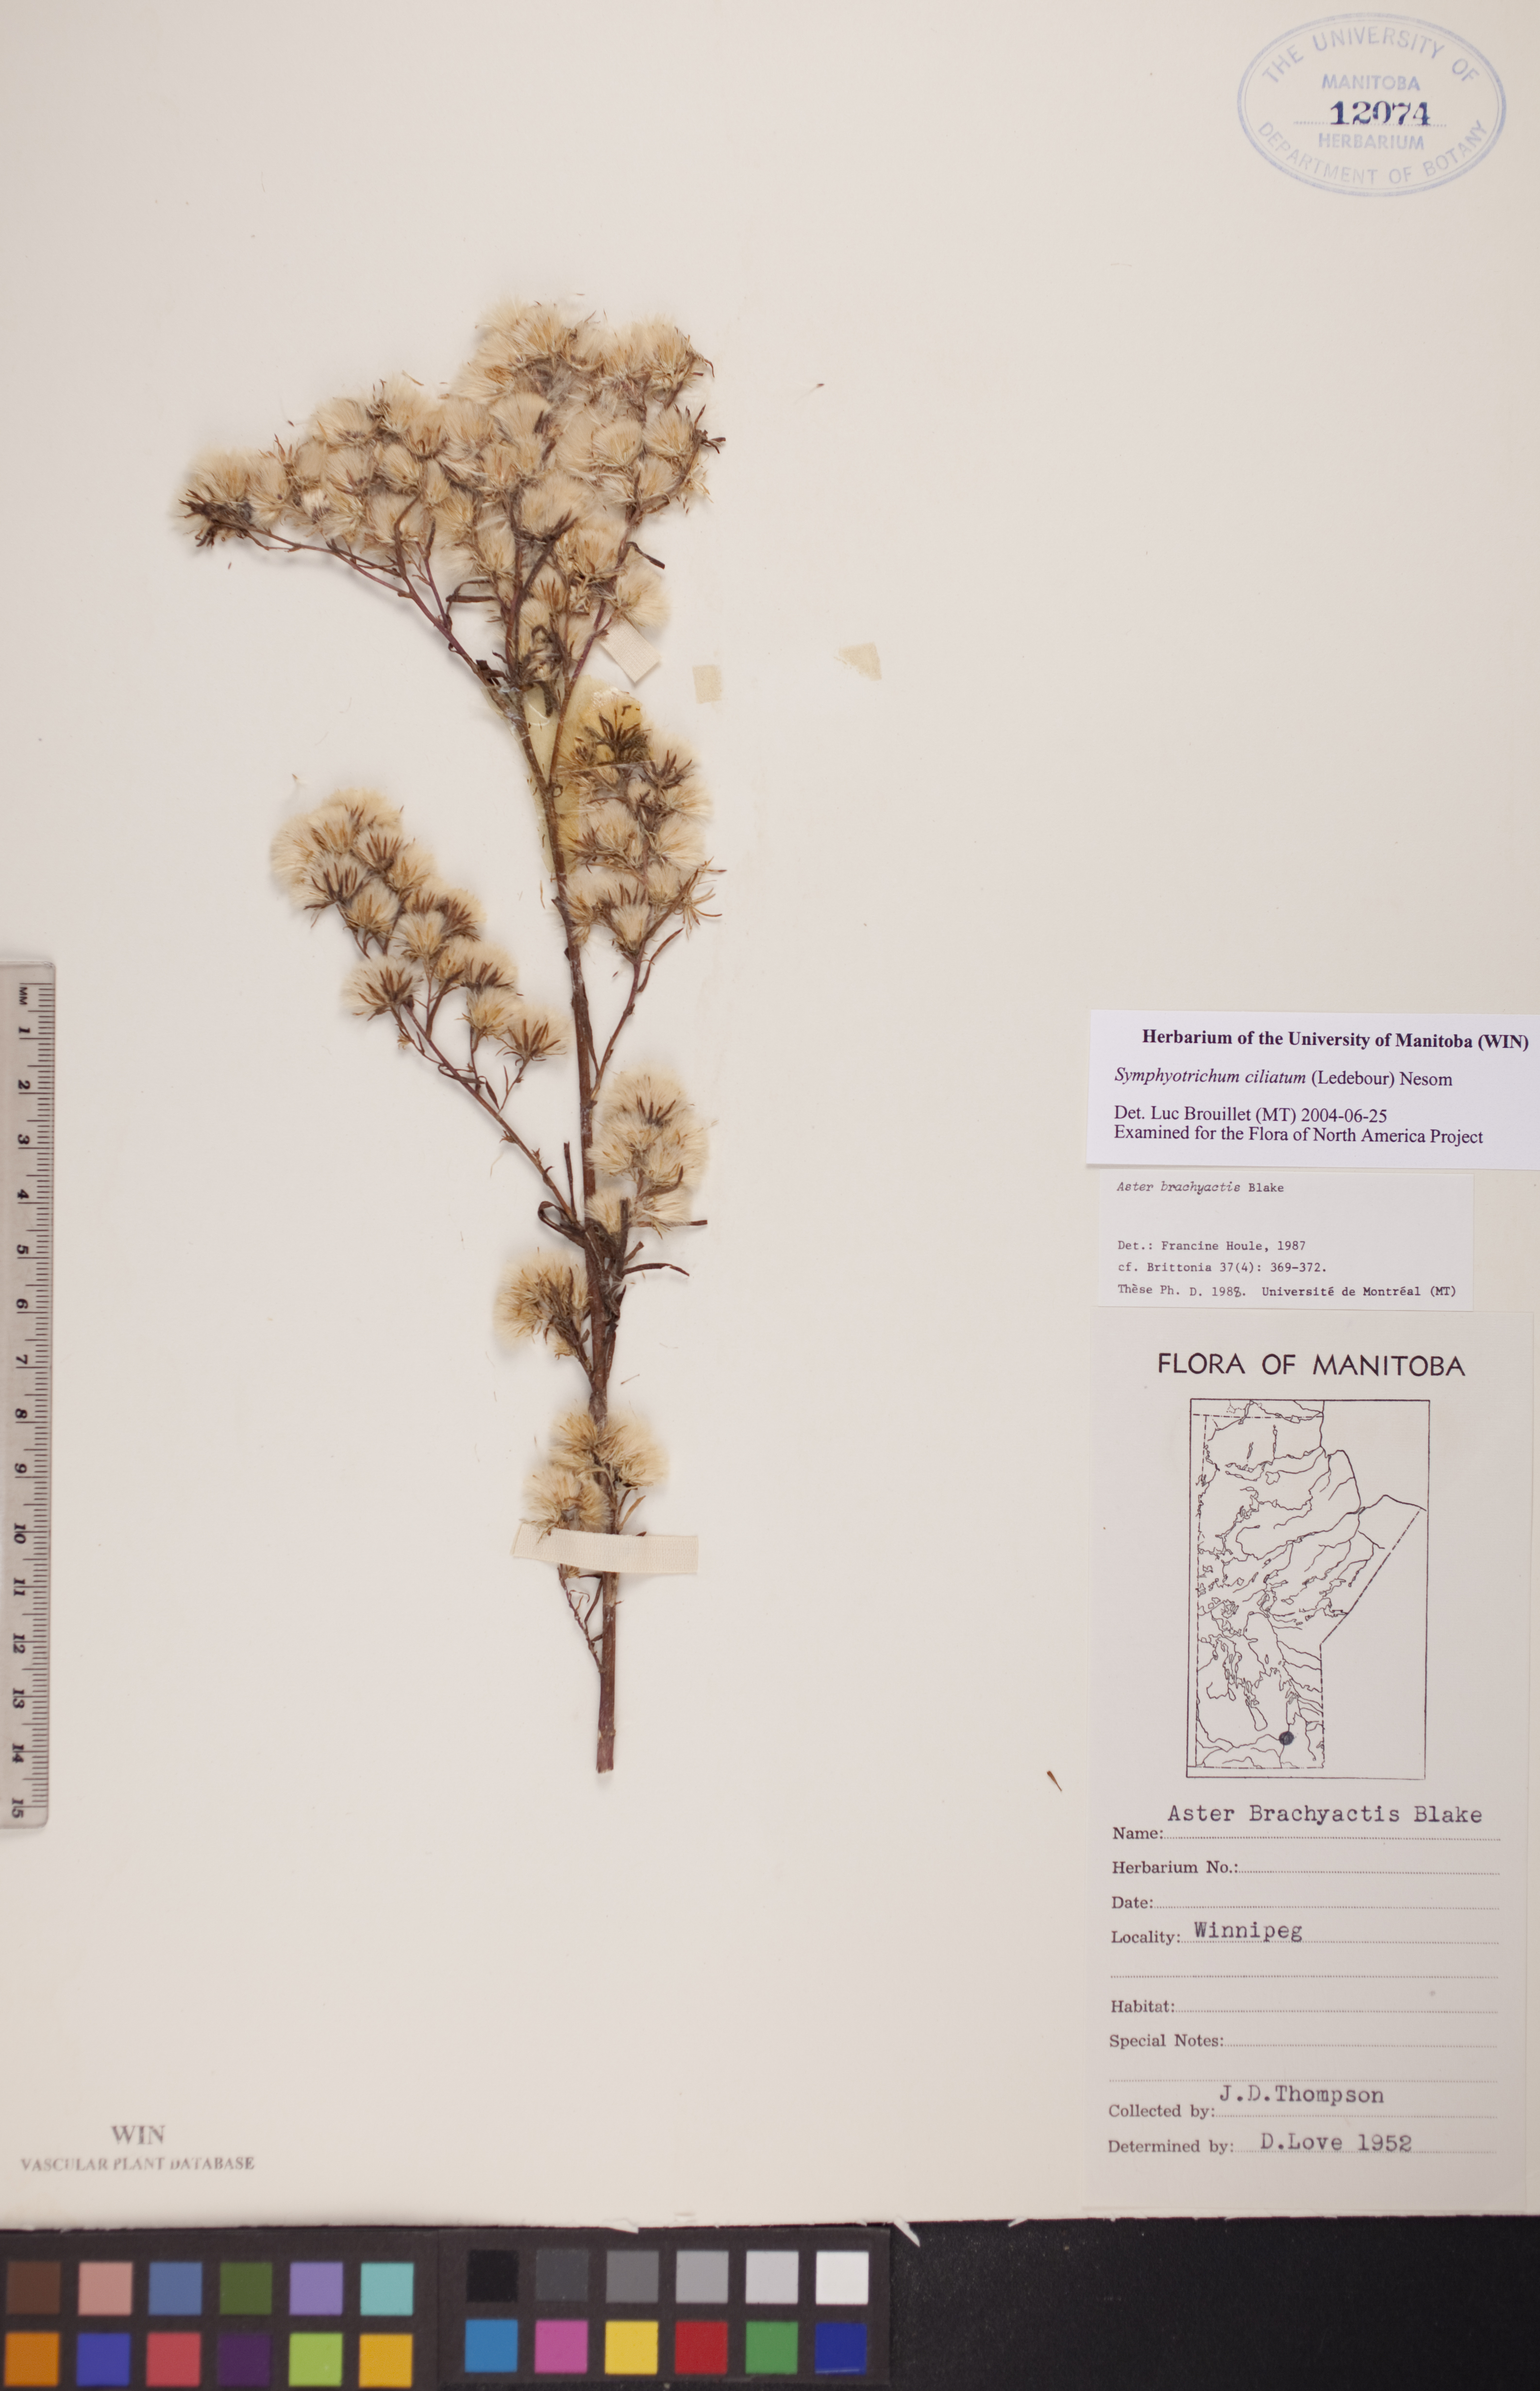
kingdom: Plantae
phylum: Tracheophyta
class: Magnoliopsida
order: Asterales
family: Asteraceae
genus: Symphyotrichum
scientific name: Symphyotrichum ciliatum
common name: Rayless annual aster
